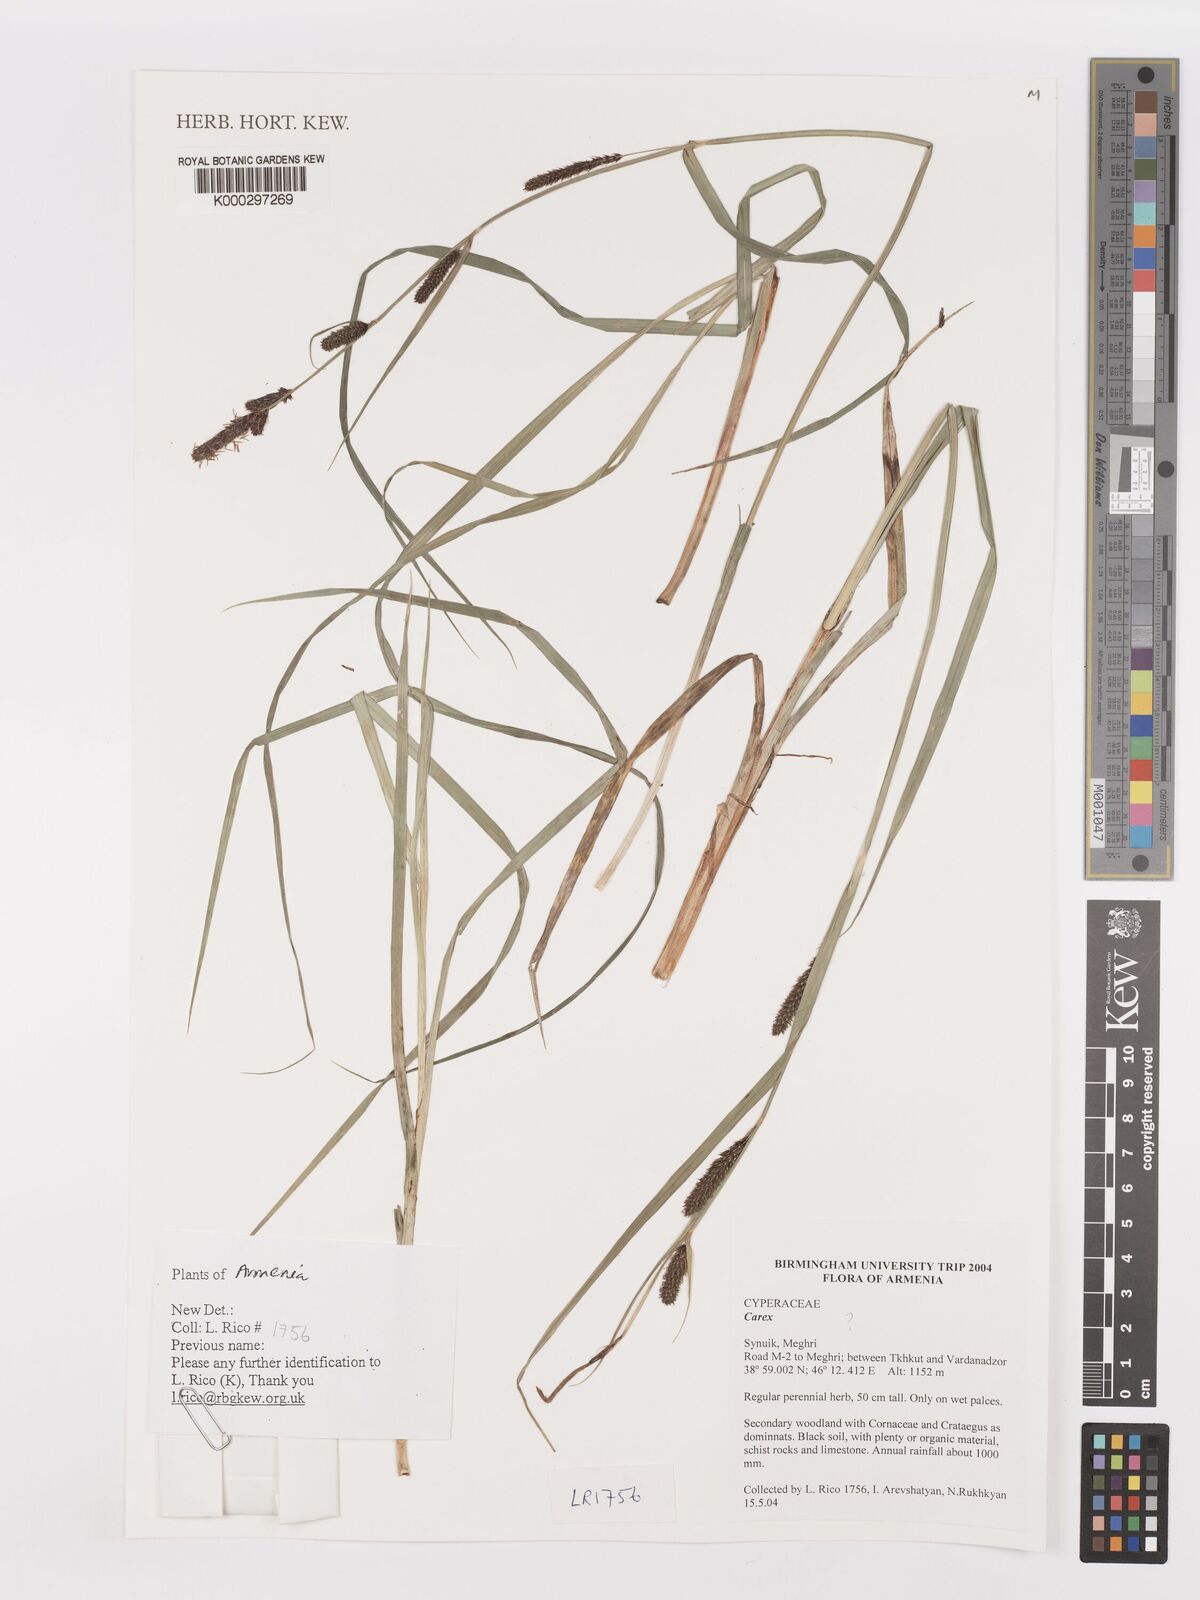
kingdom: Plantae
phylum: Tracheophyta
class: Liliopsida
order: Poales
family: Cyperaceae
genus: Carex
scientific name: Carex
